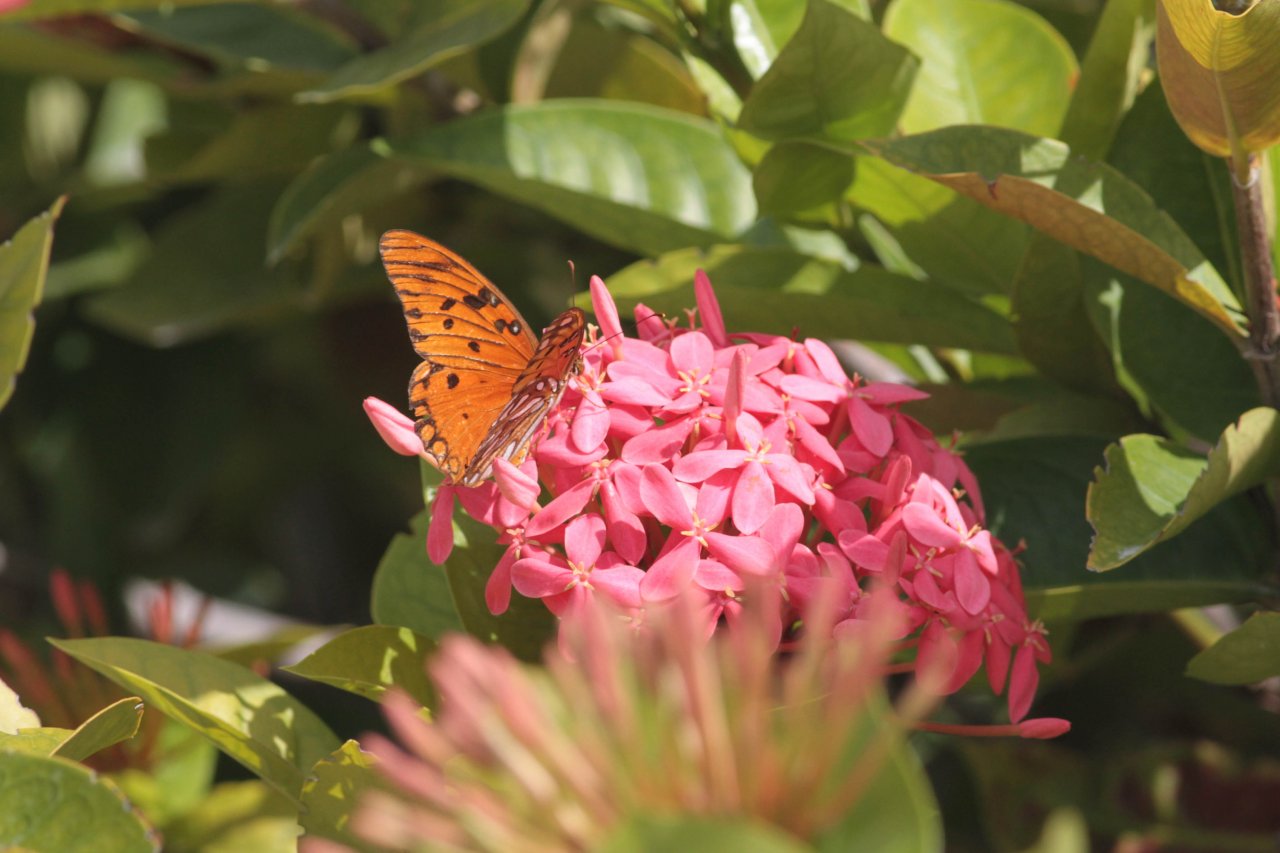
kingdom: Animalia
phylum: Arthropoda
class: Insecta
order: Lepidoptera
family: Nymphalidae
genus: Dione
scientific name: Dione vanillae
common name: Gulf Fritillary
